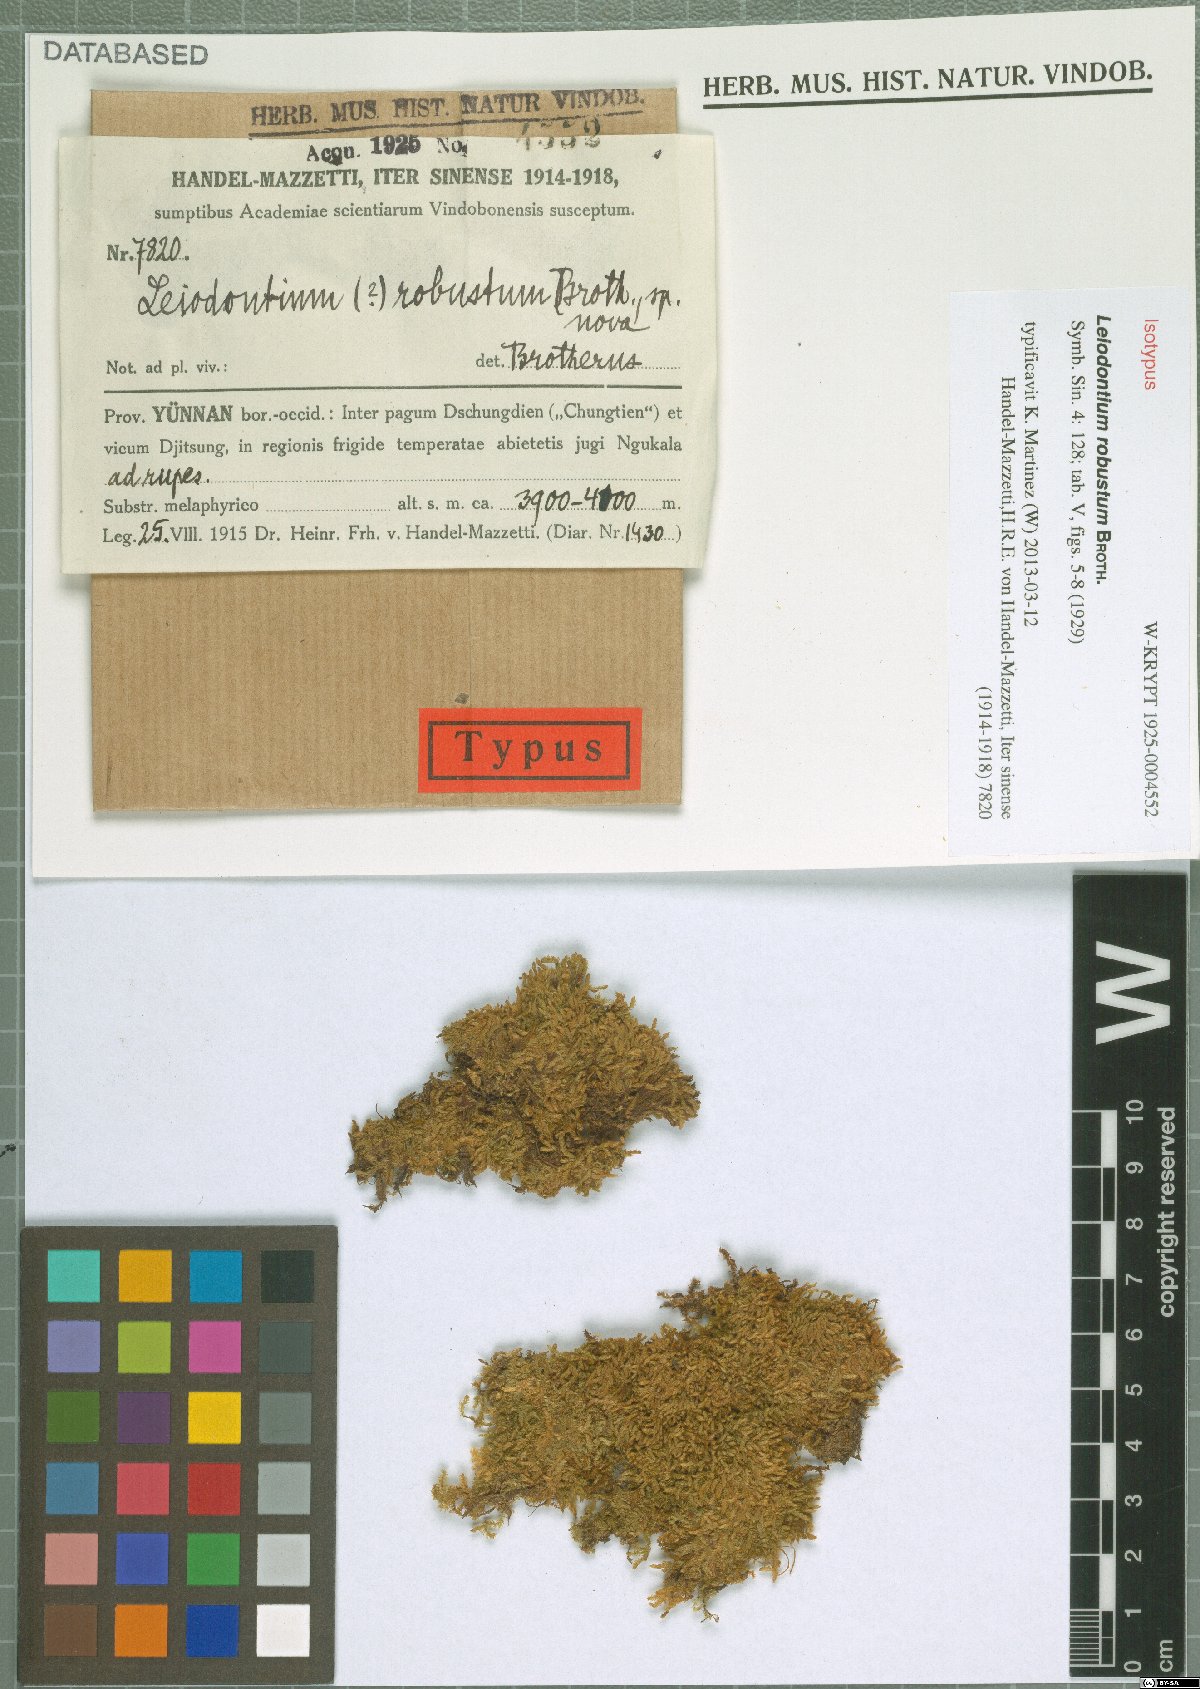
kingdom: Plantae
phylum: Bryophyta
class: Bryopsida
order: Hypnales
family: Hypnaceae
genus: Leiodontium
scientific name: Leiodontium robustum
